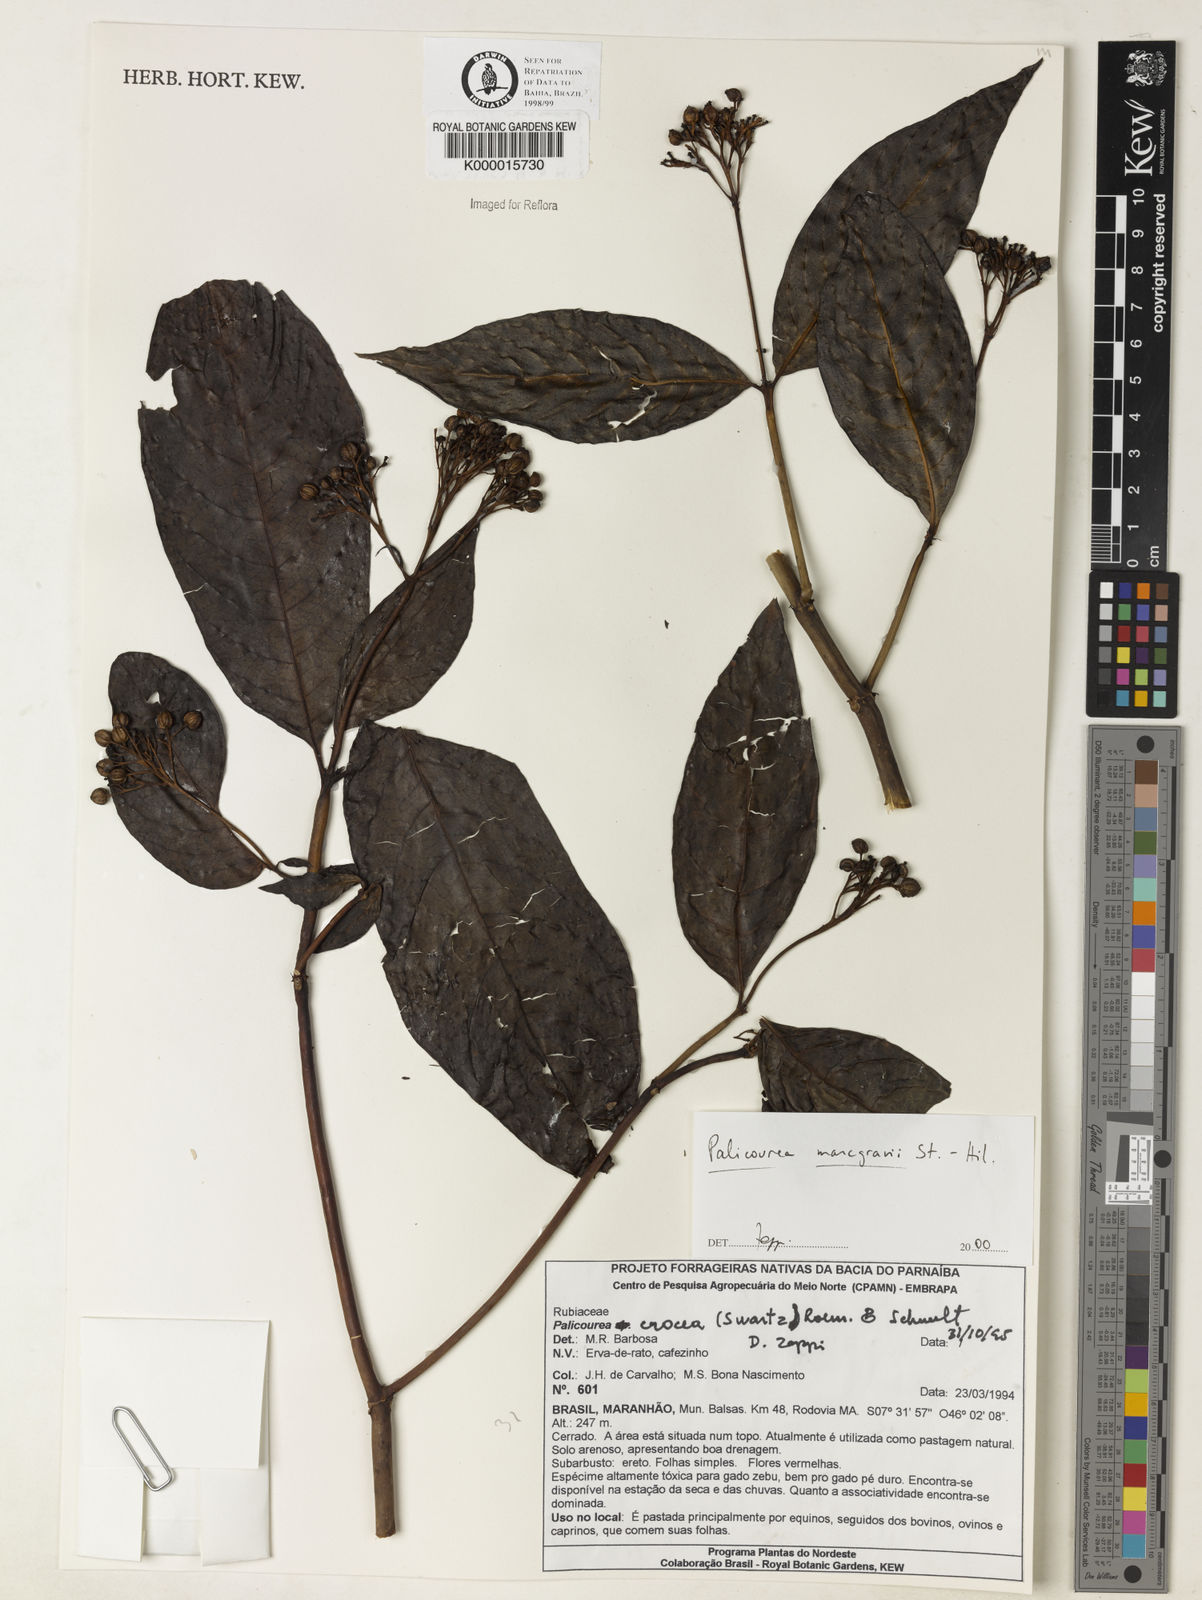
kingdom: Plantae
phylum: Tracheophyta
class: Magnoliopsida
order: Gentianales
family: Rubiaceae
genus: Palicourea
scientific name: Palicourea marcgravii
